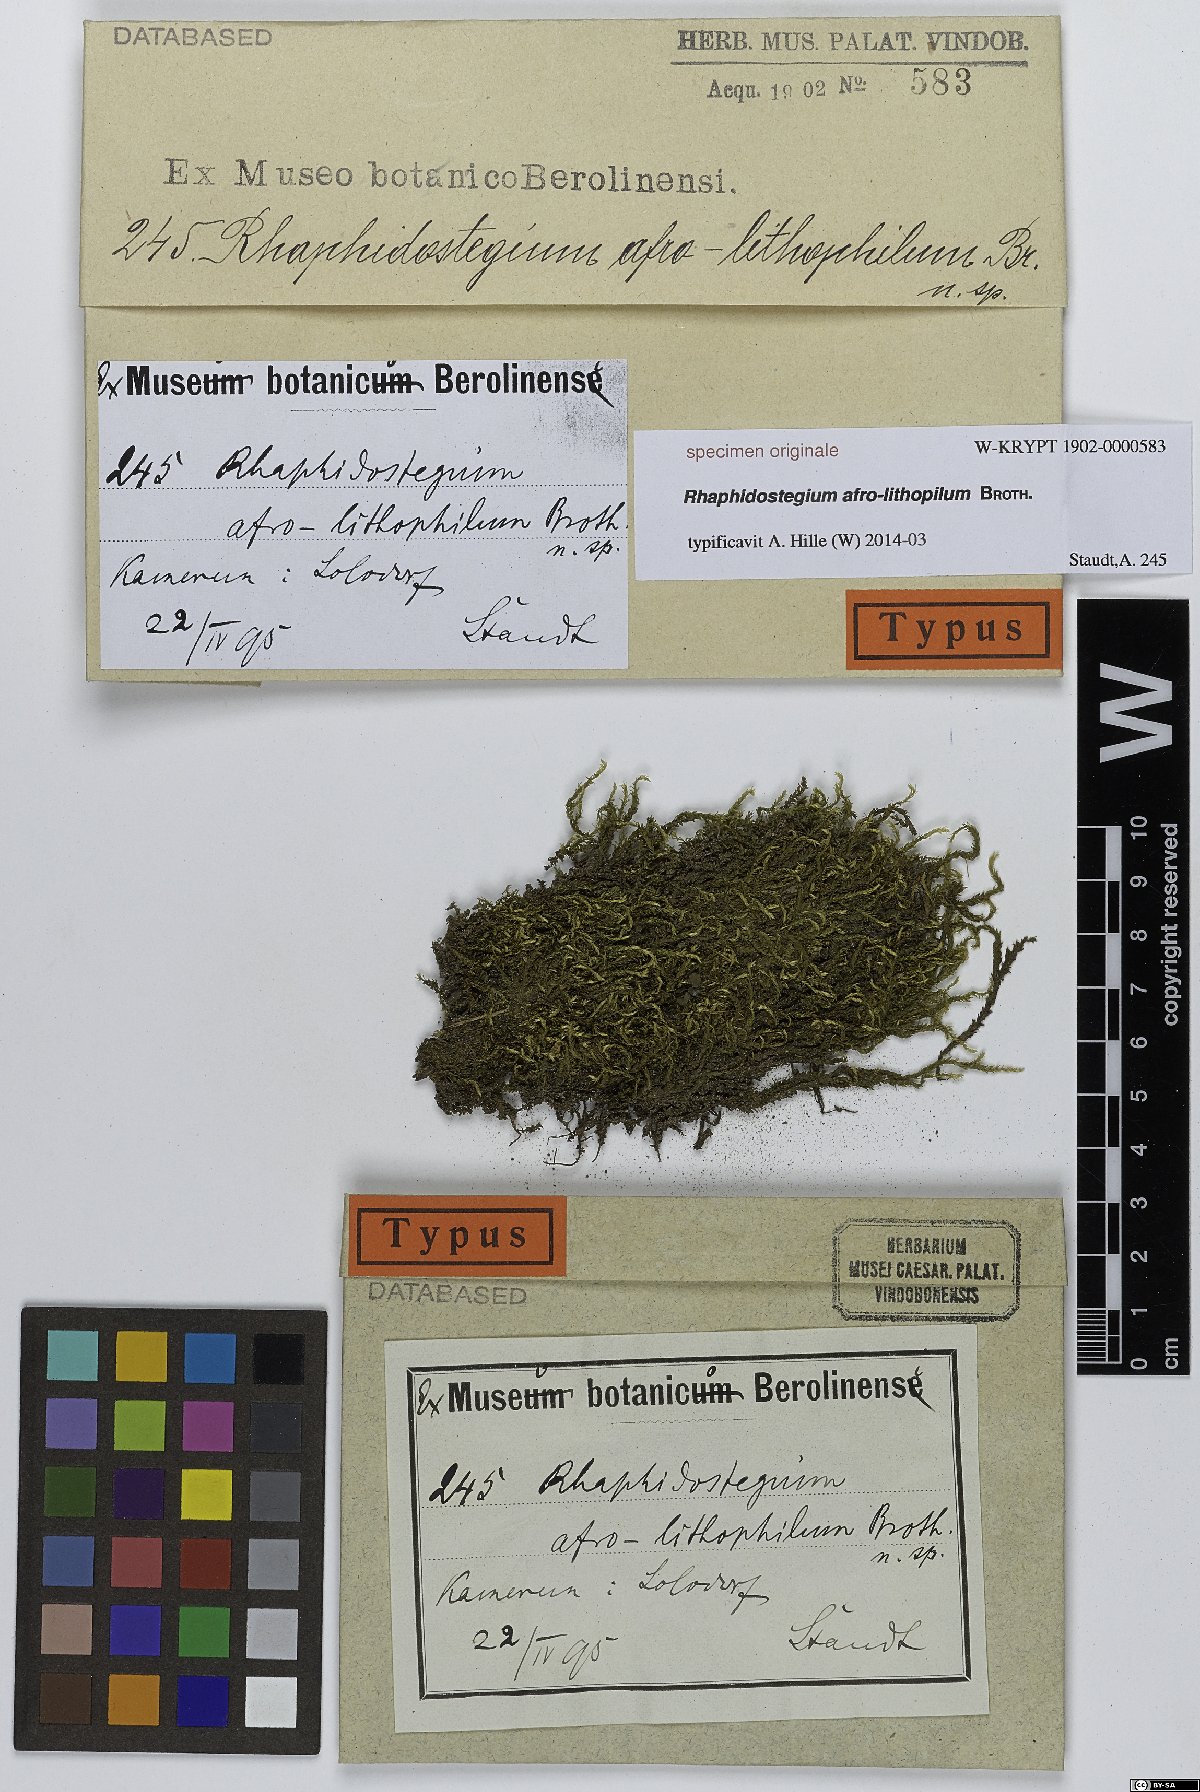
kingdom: Plantae
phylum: Bryophyta
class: Bryopsida
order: Hypnales
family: Sematophyllaceae
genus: Rhaphidostegium
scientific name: Rhaphidostegium
